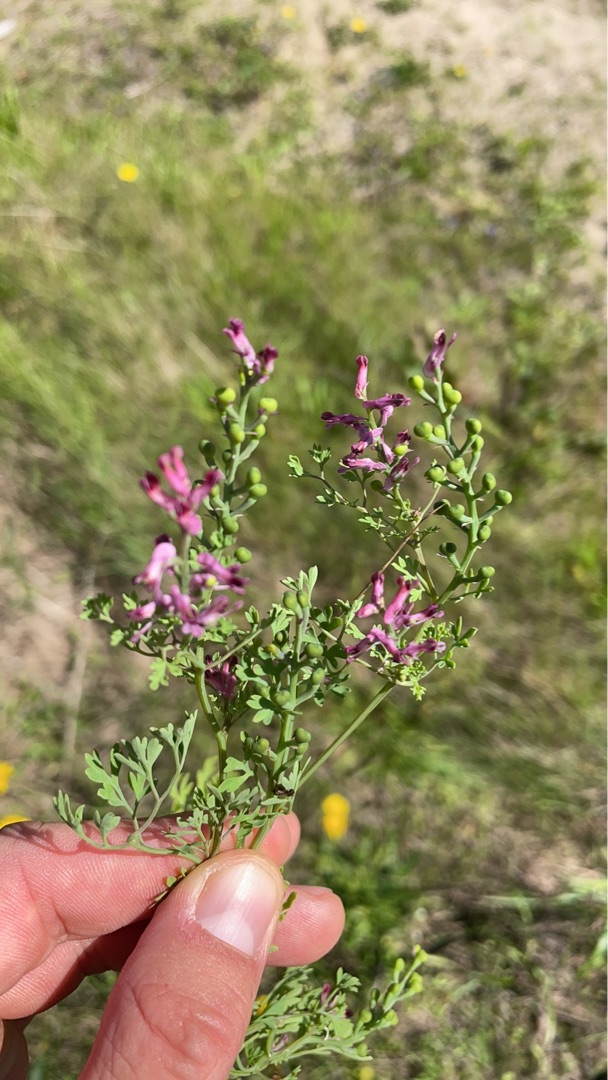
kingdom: Plantae
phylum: Tracheophyta
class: Magnoliopsida
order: Ranunculales
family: Papaveraceae
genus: Fumaria
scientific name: Fumaria officinalis
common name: Læge-jordrøg
